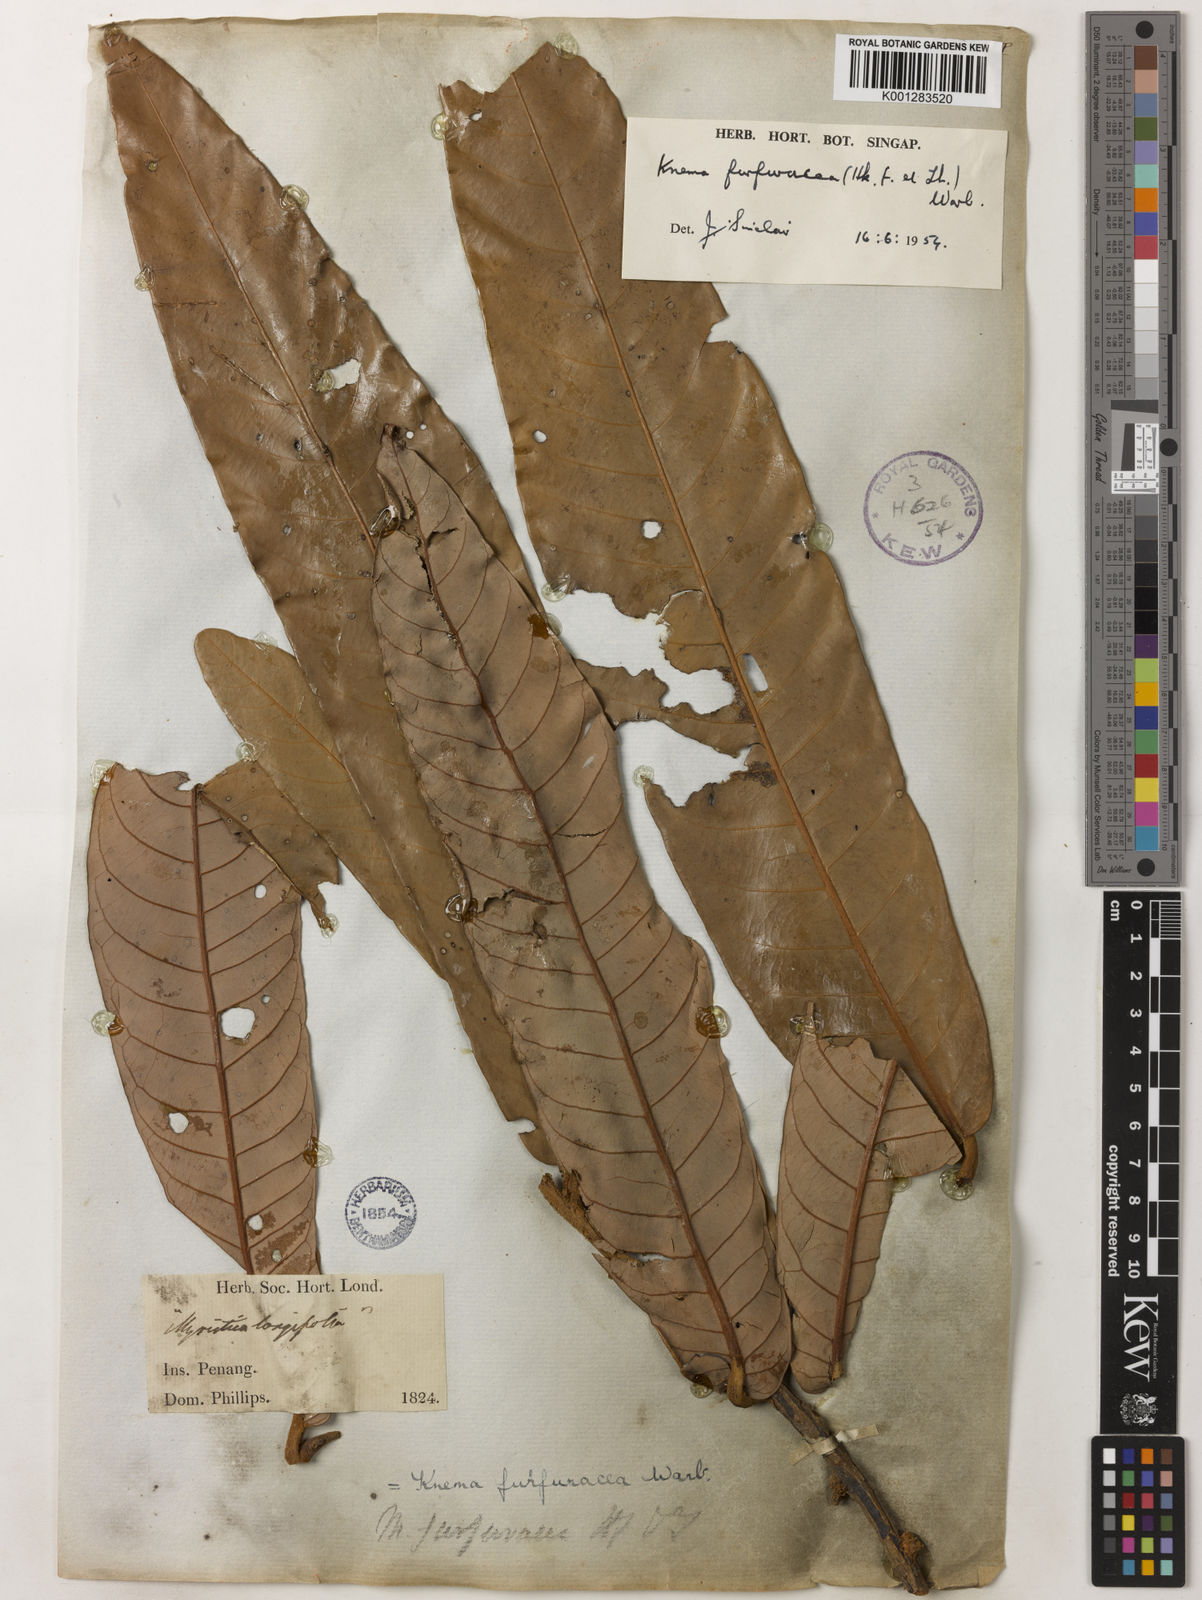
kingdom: Plantae
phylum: Tracheophyta
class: Magnoliopsida
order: Magnoliales
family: Myristicaceae
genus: Knema
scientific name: Knema furfuracea
